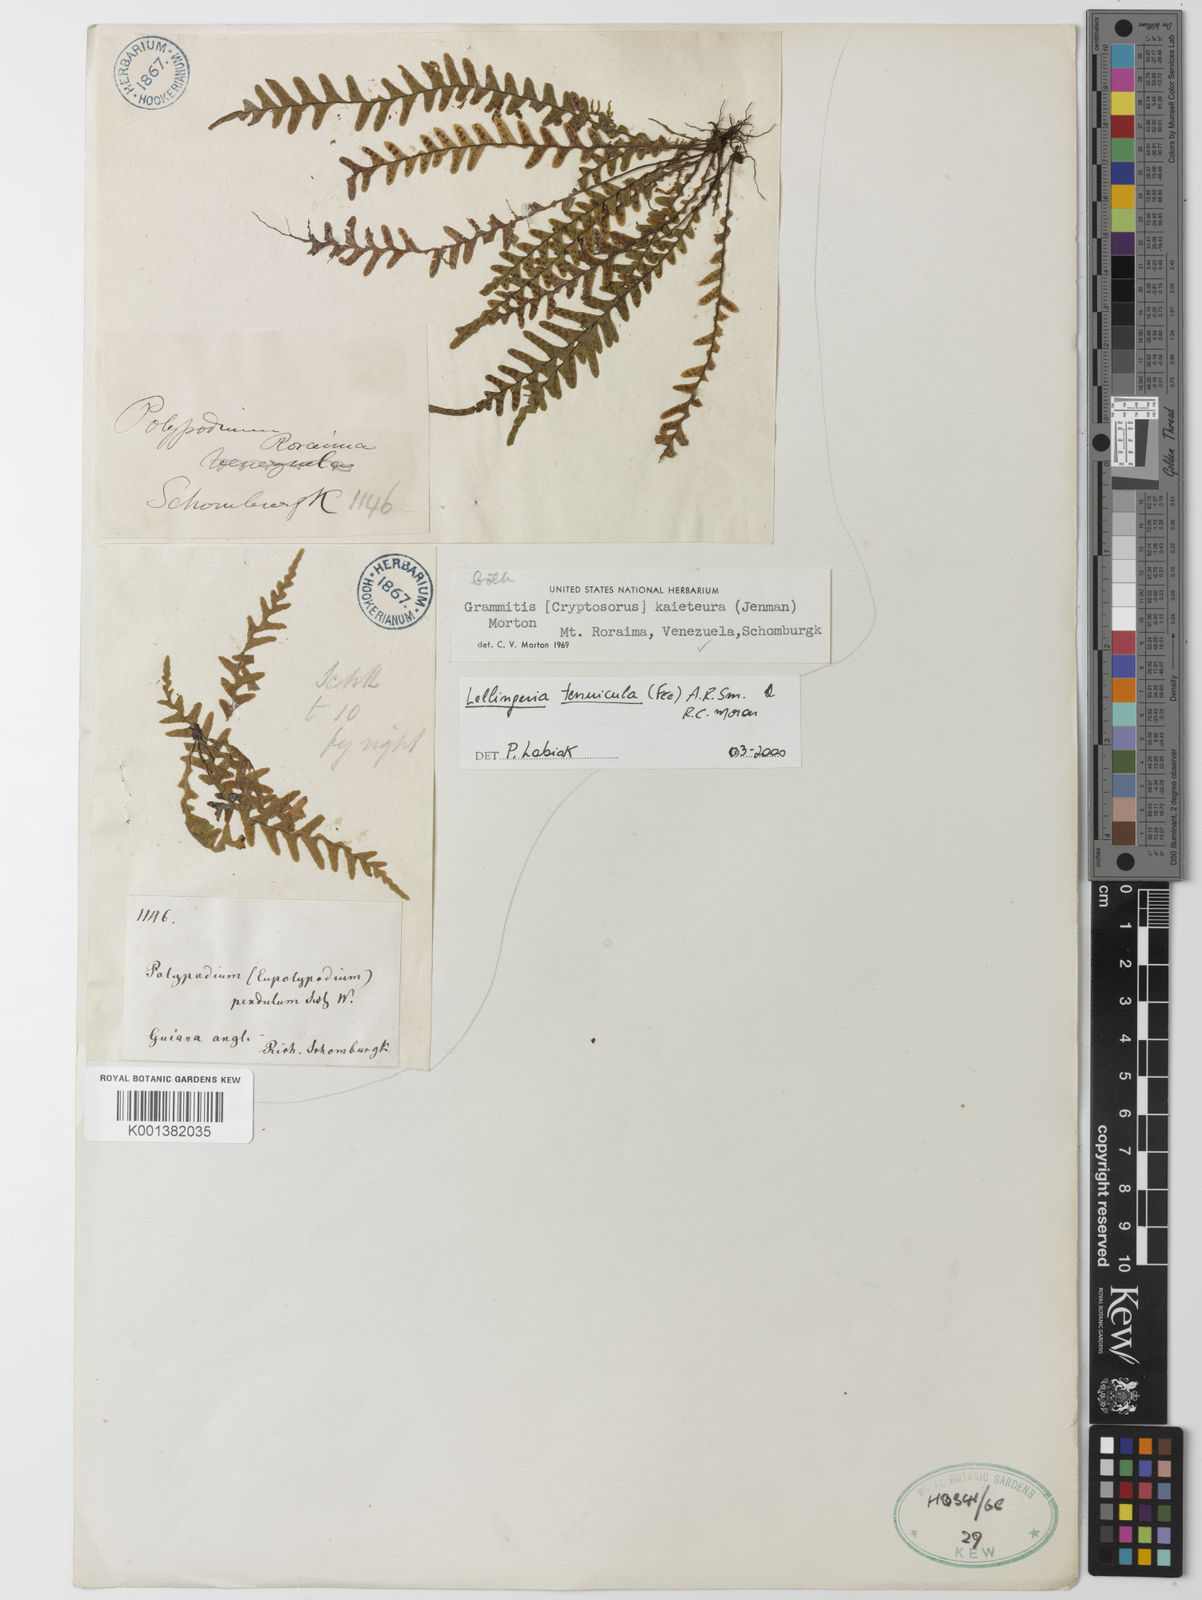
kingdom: Plantae
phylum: Tracheophyta
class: Polypodiopsida
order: Polypodiales
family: Polypodiaceae
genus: Lellingeria
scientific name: Lellingeria
